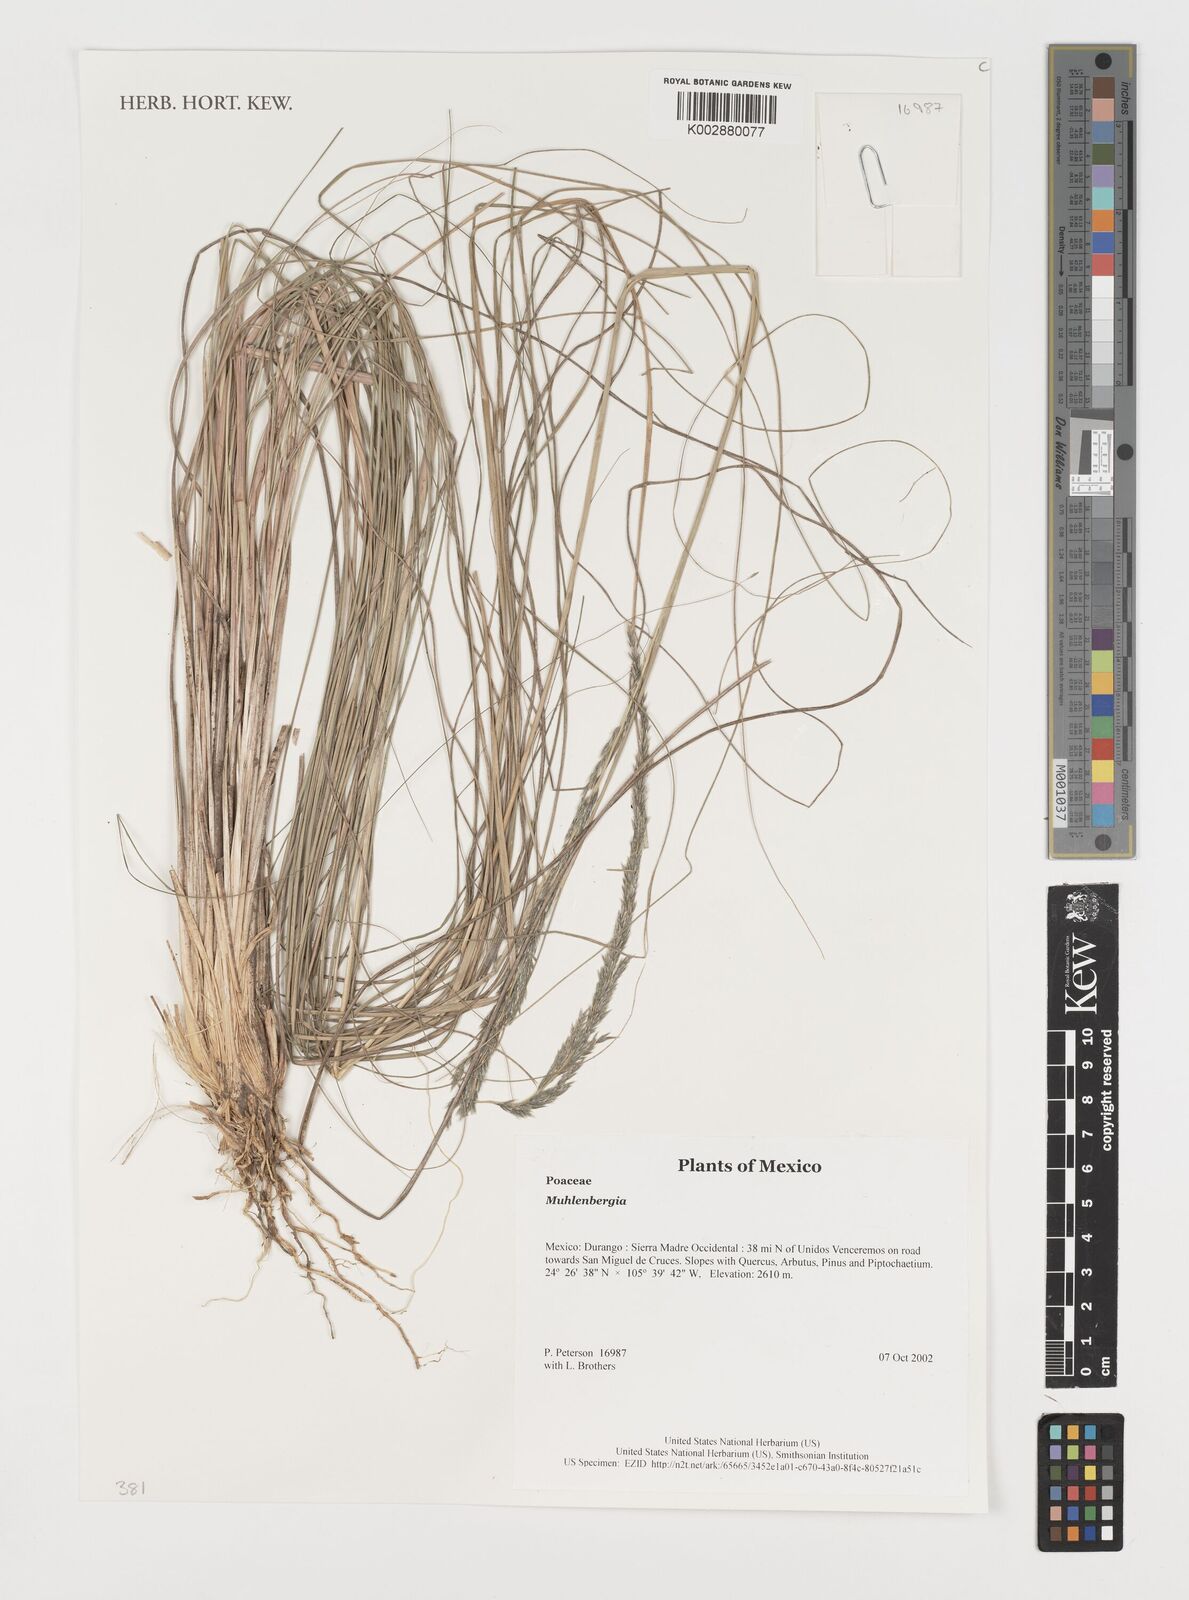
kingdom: Plantae
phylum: Tracheophyta
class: Liliopsida
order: Poales
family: Poaceae
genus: Muhlenbergia
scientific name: Muhlenbergia
